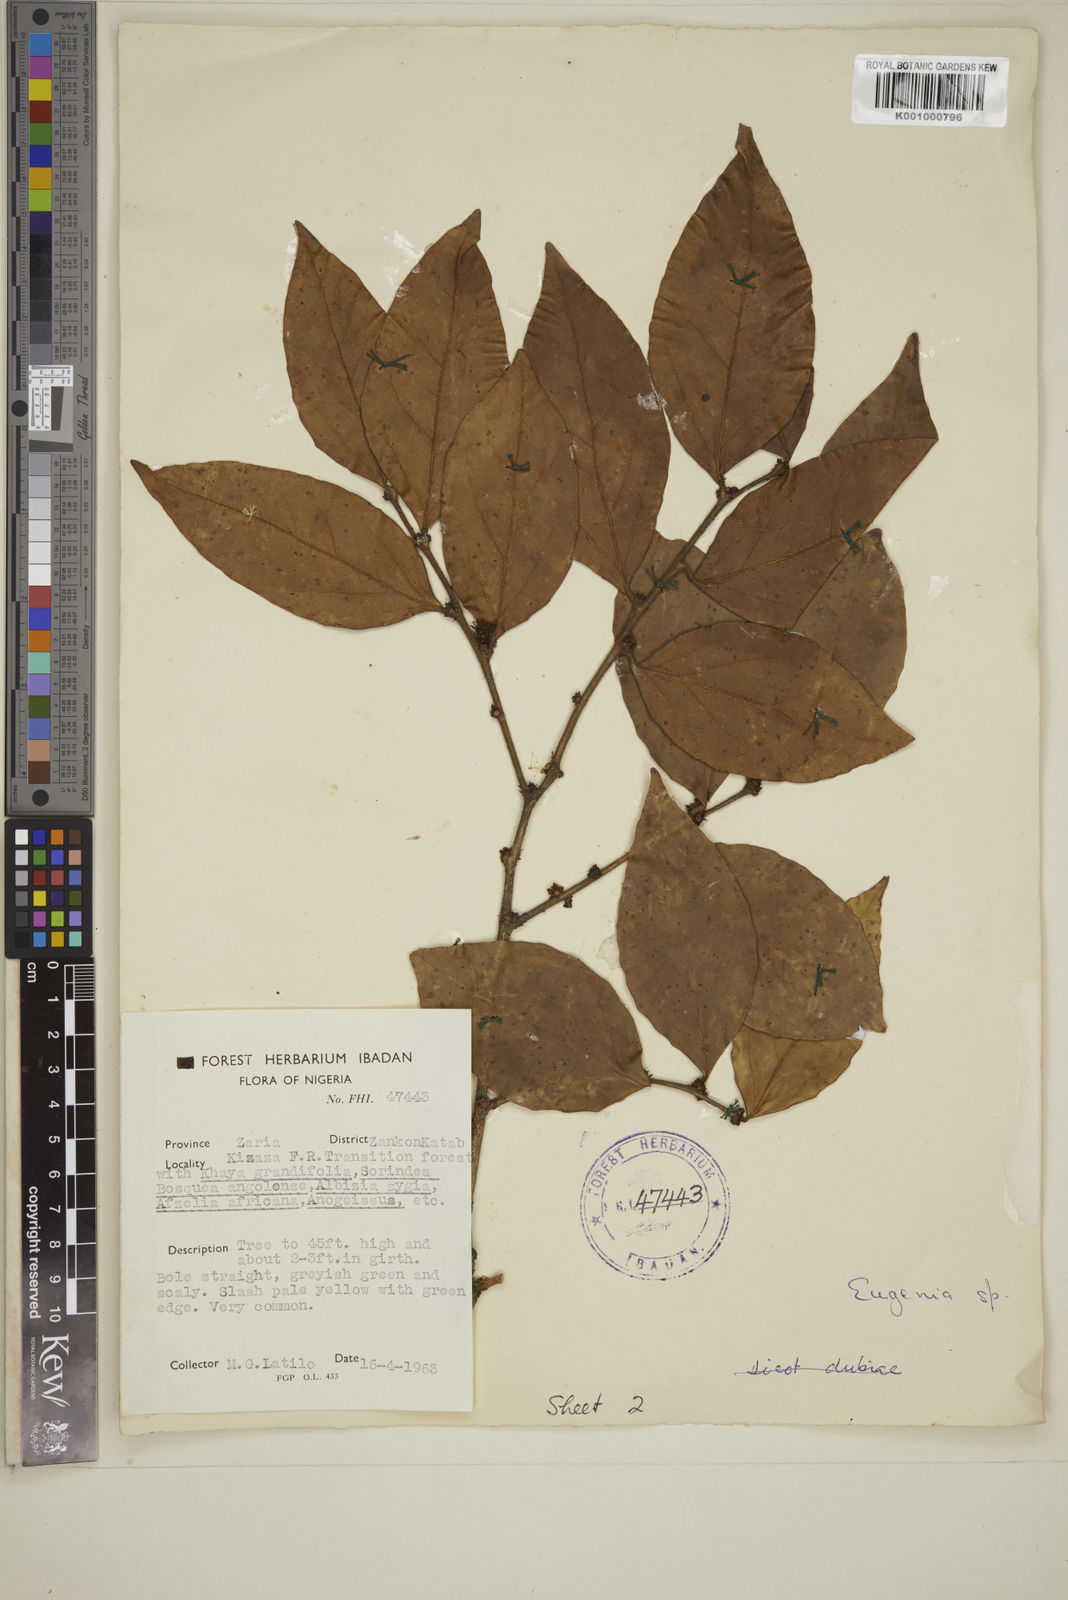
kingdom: Plantae
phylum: Tracheophyta
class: Magnoliopsida
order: Myrtales
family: Myrtaceae
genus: Eugenia
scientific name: Eugenia
